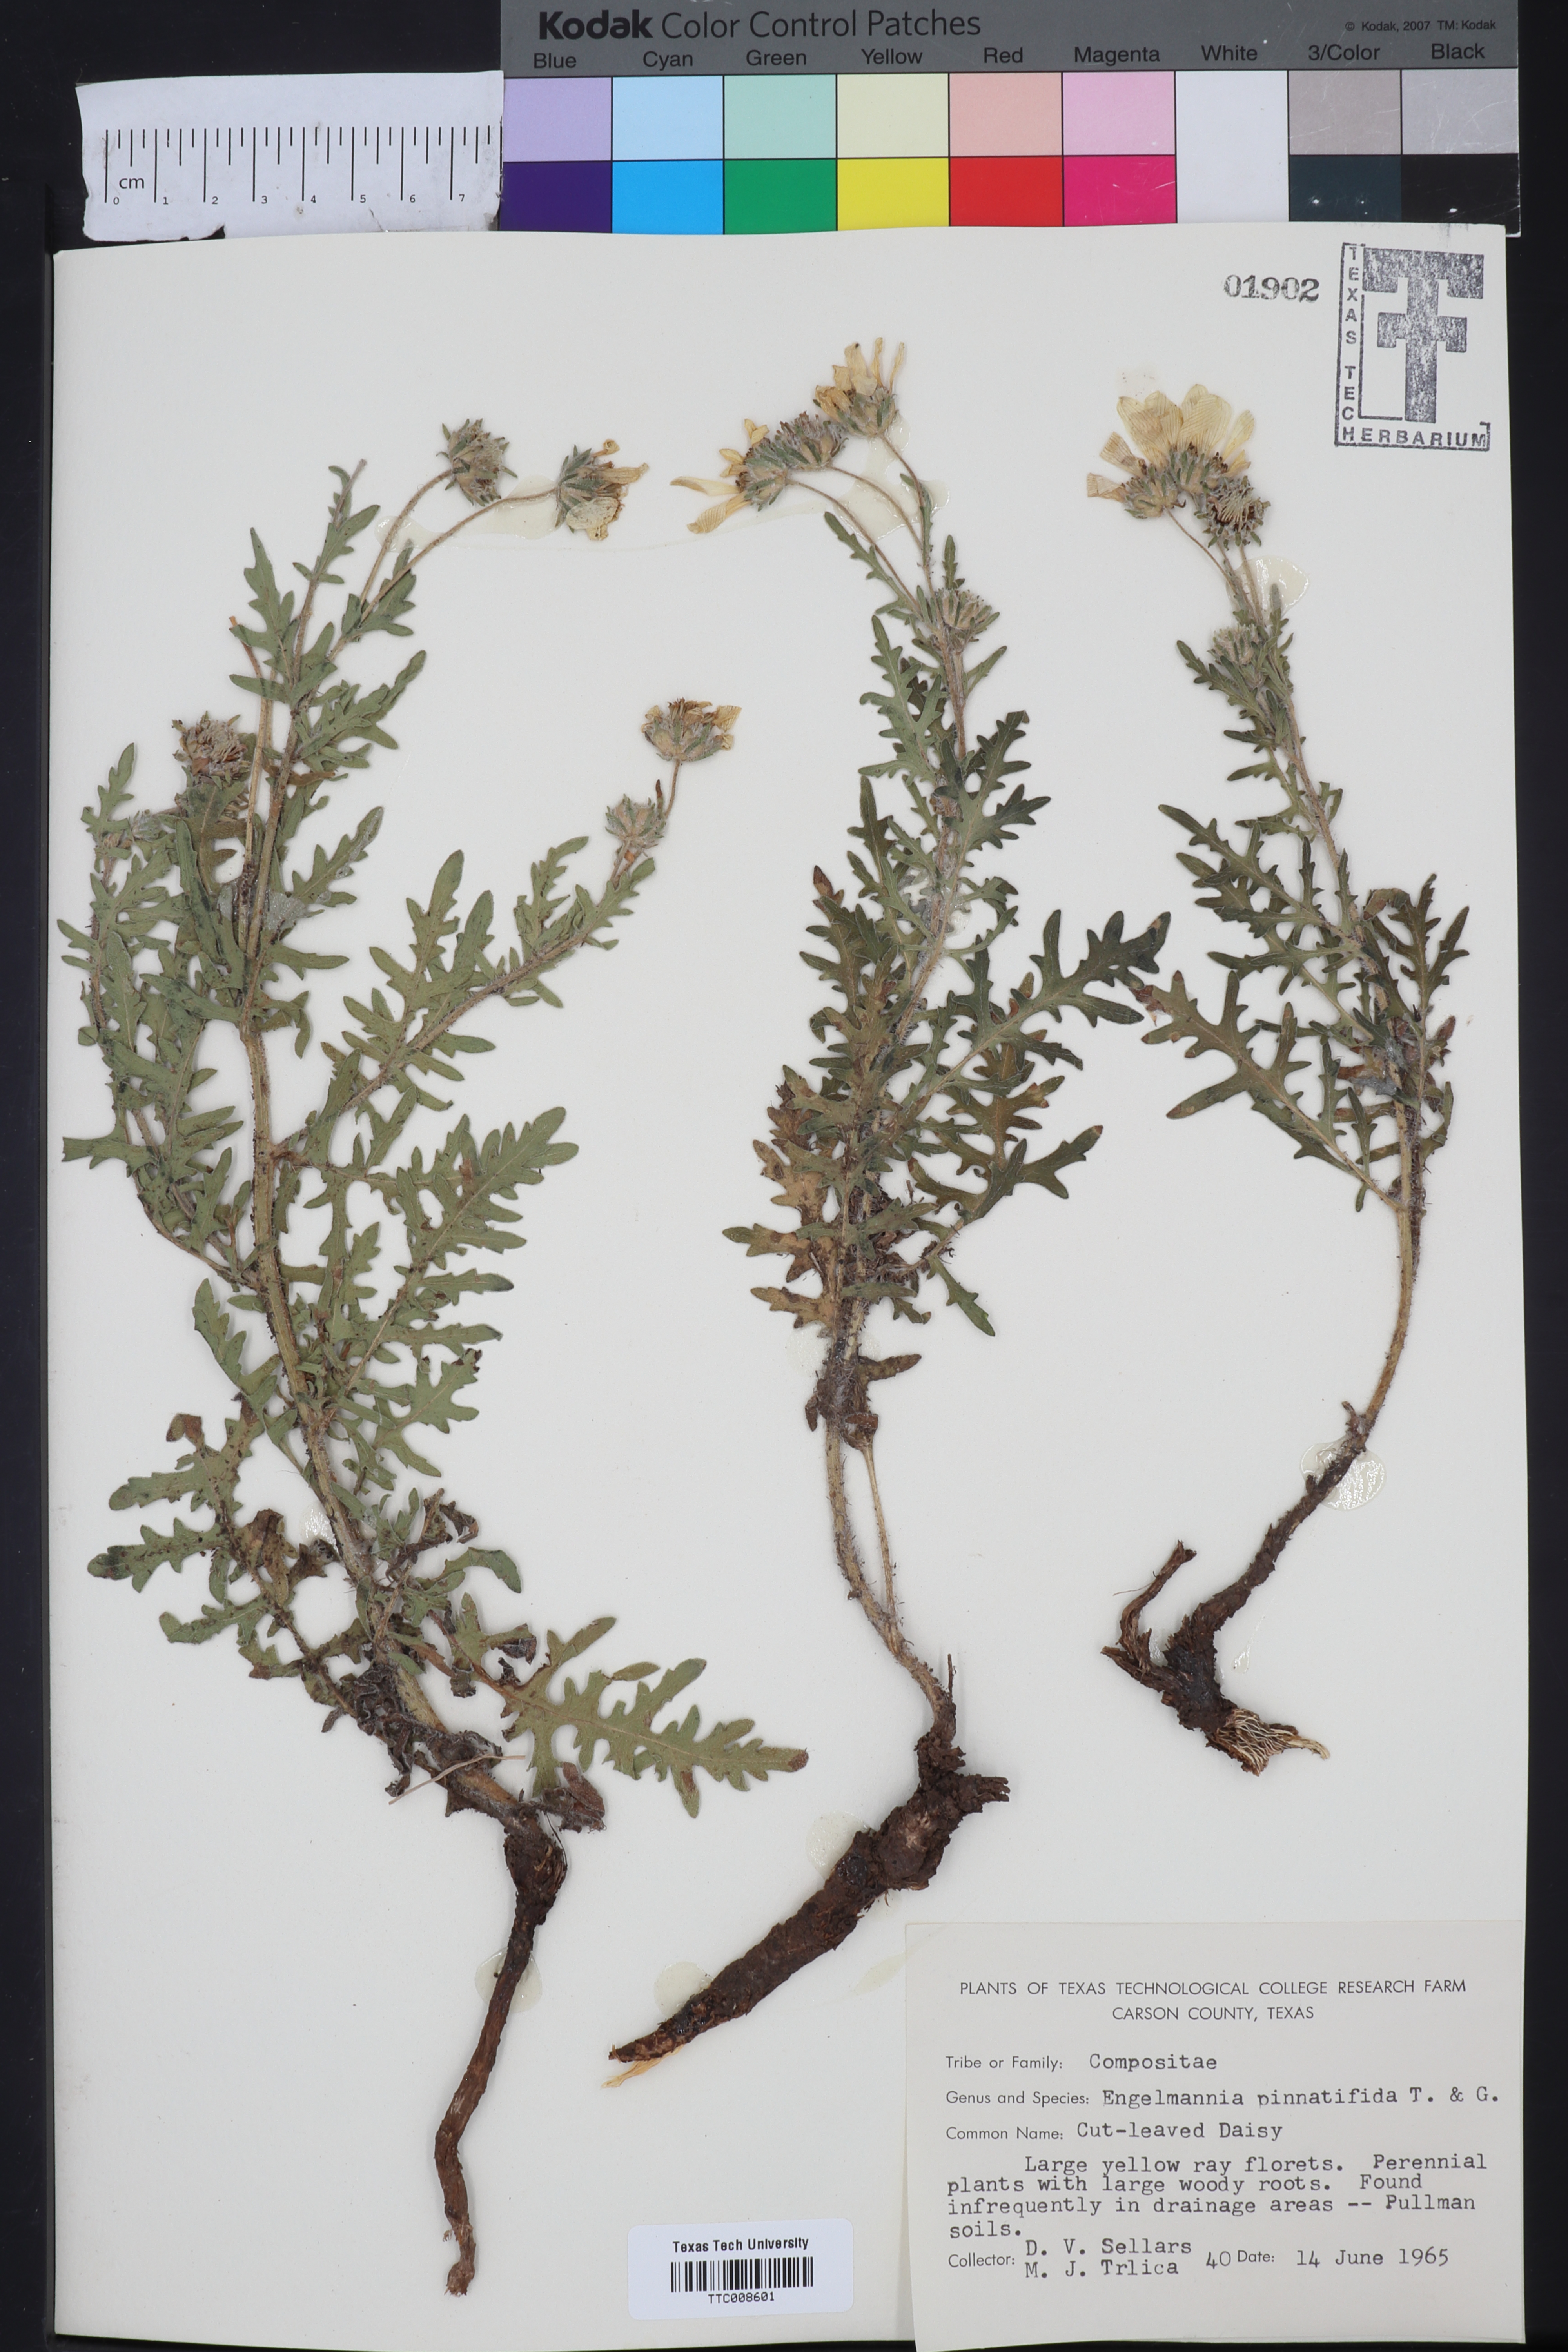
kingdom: Plantae
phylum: Tracheophyta
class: Magnoliopsida
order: Asterales
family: Asteraceae
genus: Engelmannia
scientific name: Engelmannia peristenia
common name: Engelmann's daisy
